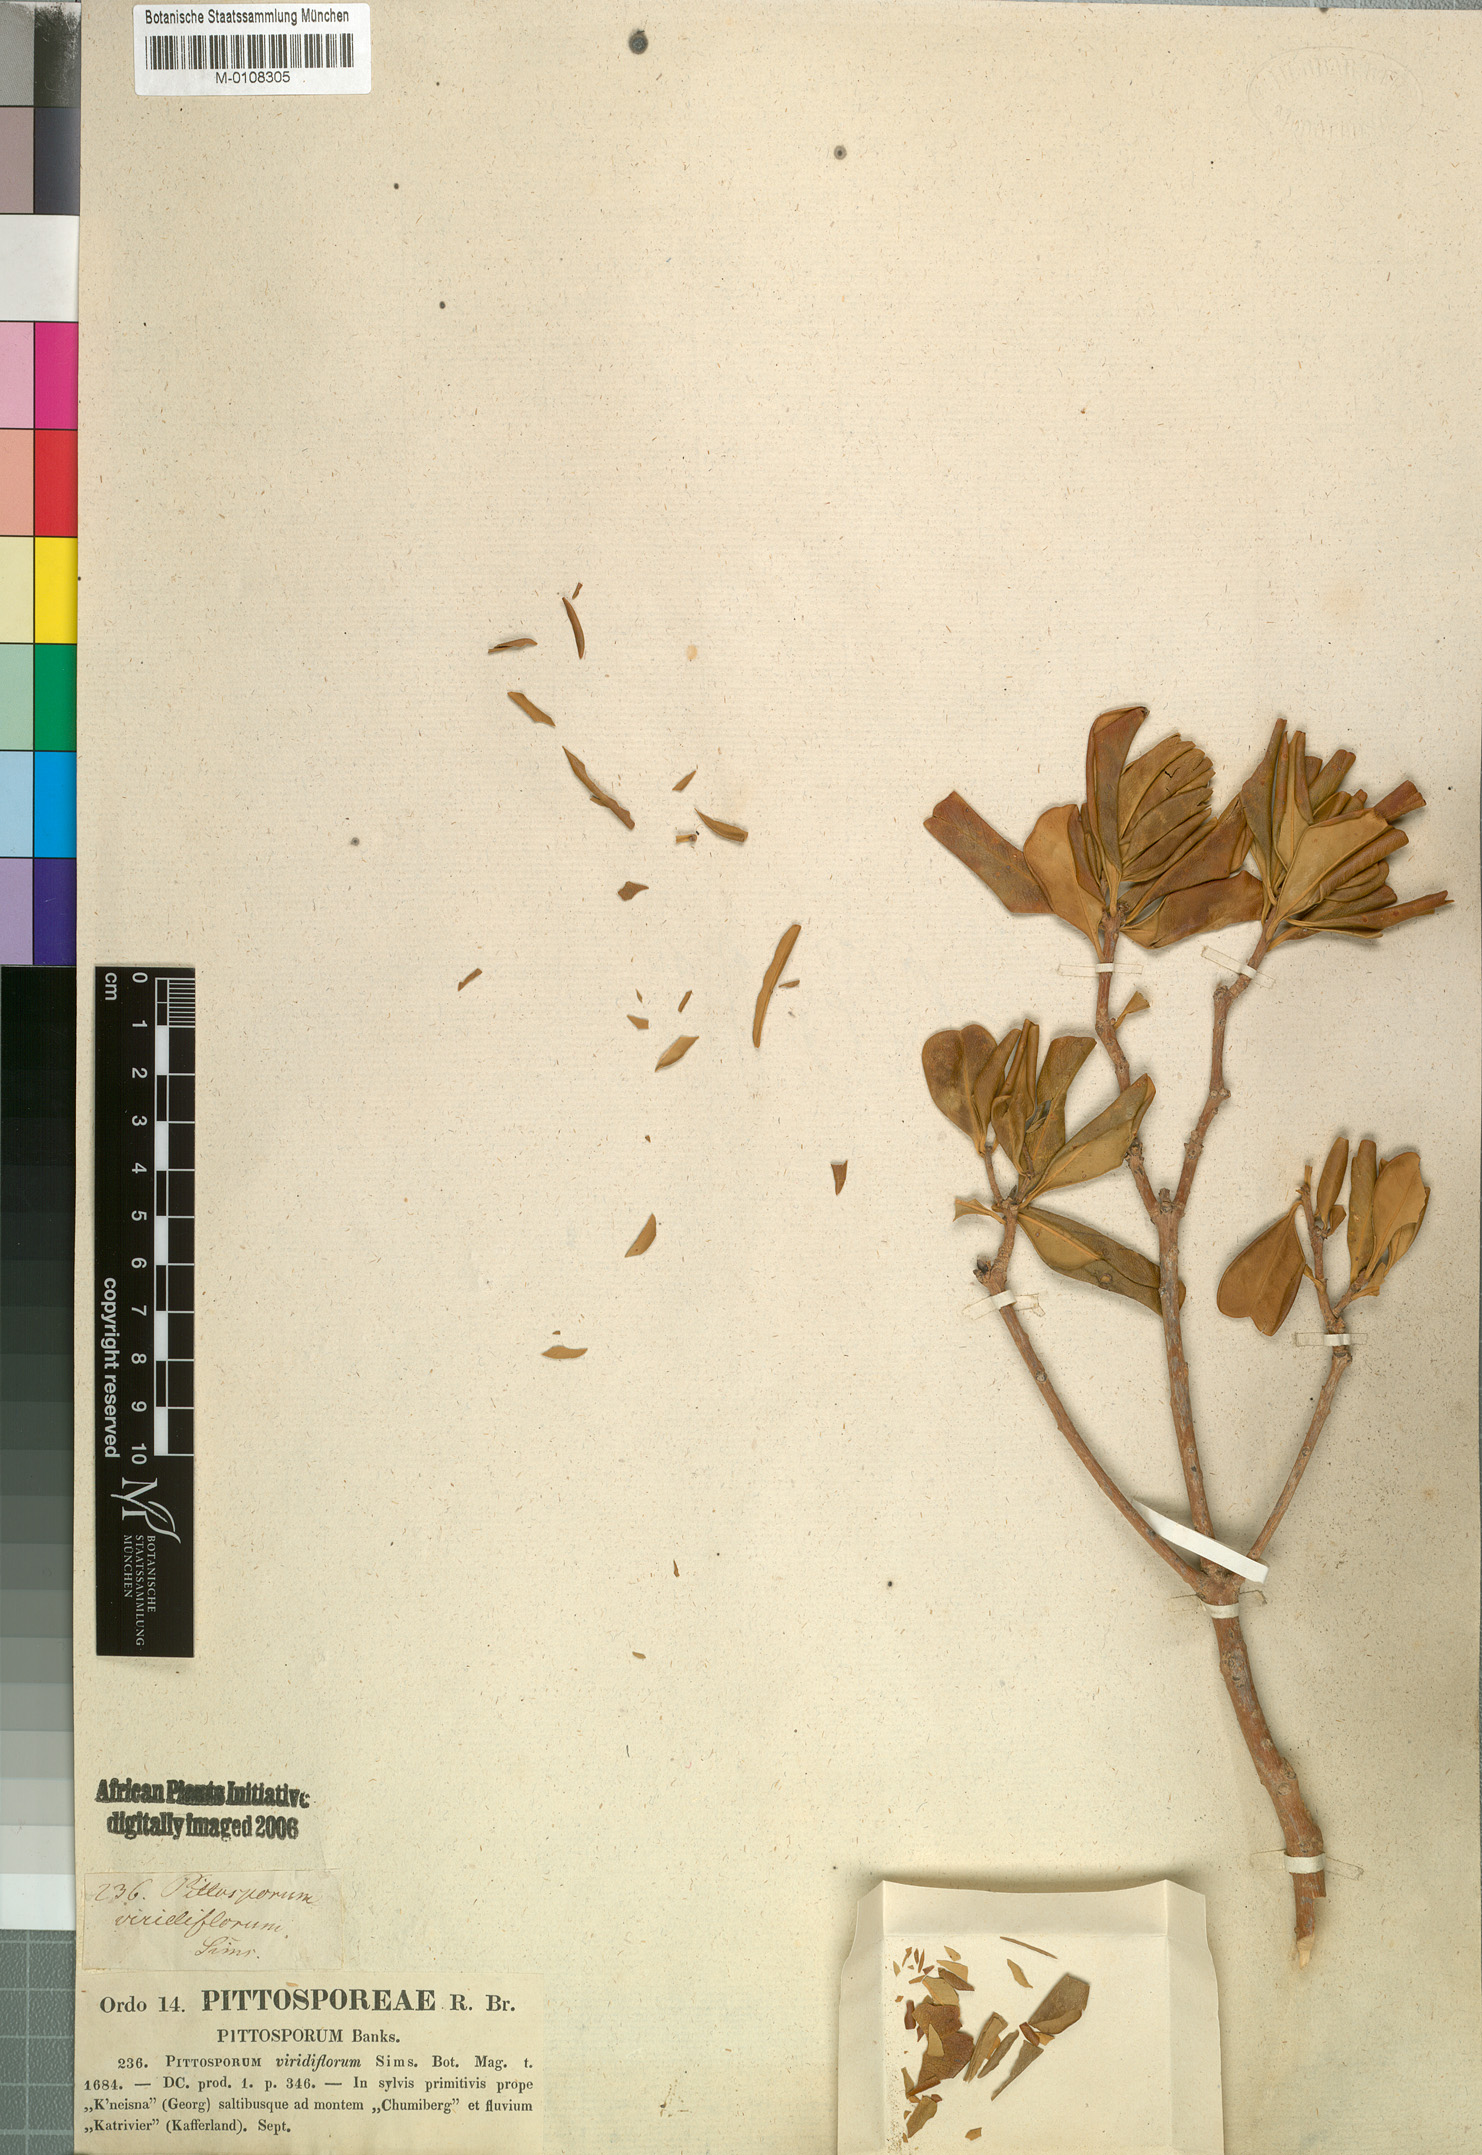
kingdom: Plantae
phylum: Tracheophyta
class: Magnoliopsida
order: Apiales
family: Pittosporaceae
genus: Pittosporum
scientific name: Pittosporum viridiflorum
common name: Cape cheesewood
